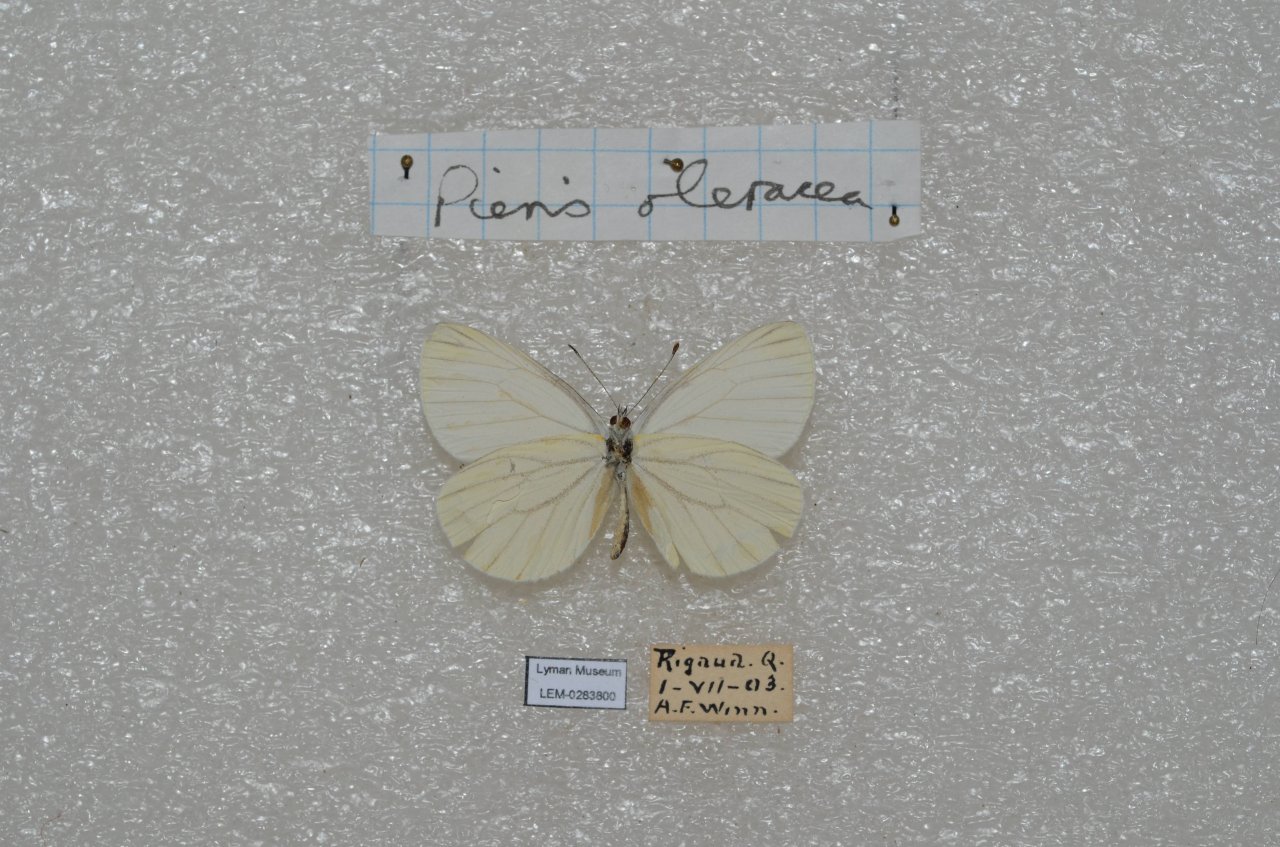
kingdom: Animalia
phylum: Arthropoda
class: Insecta
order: Lepidoptera
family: Pieridae
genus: Pieris
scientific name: Pieris oleracea
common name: Mustard White
